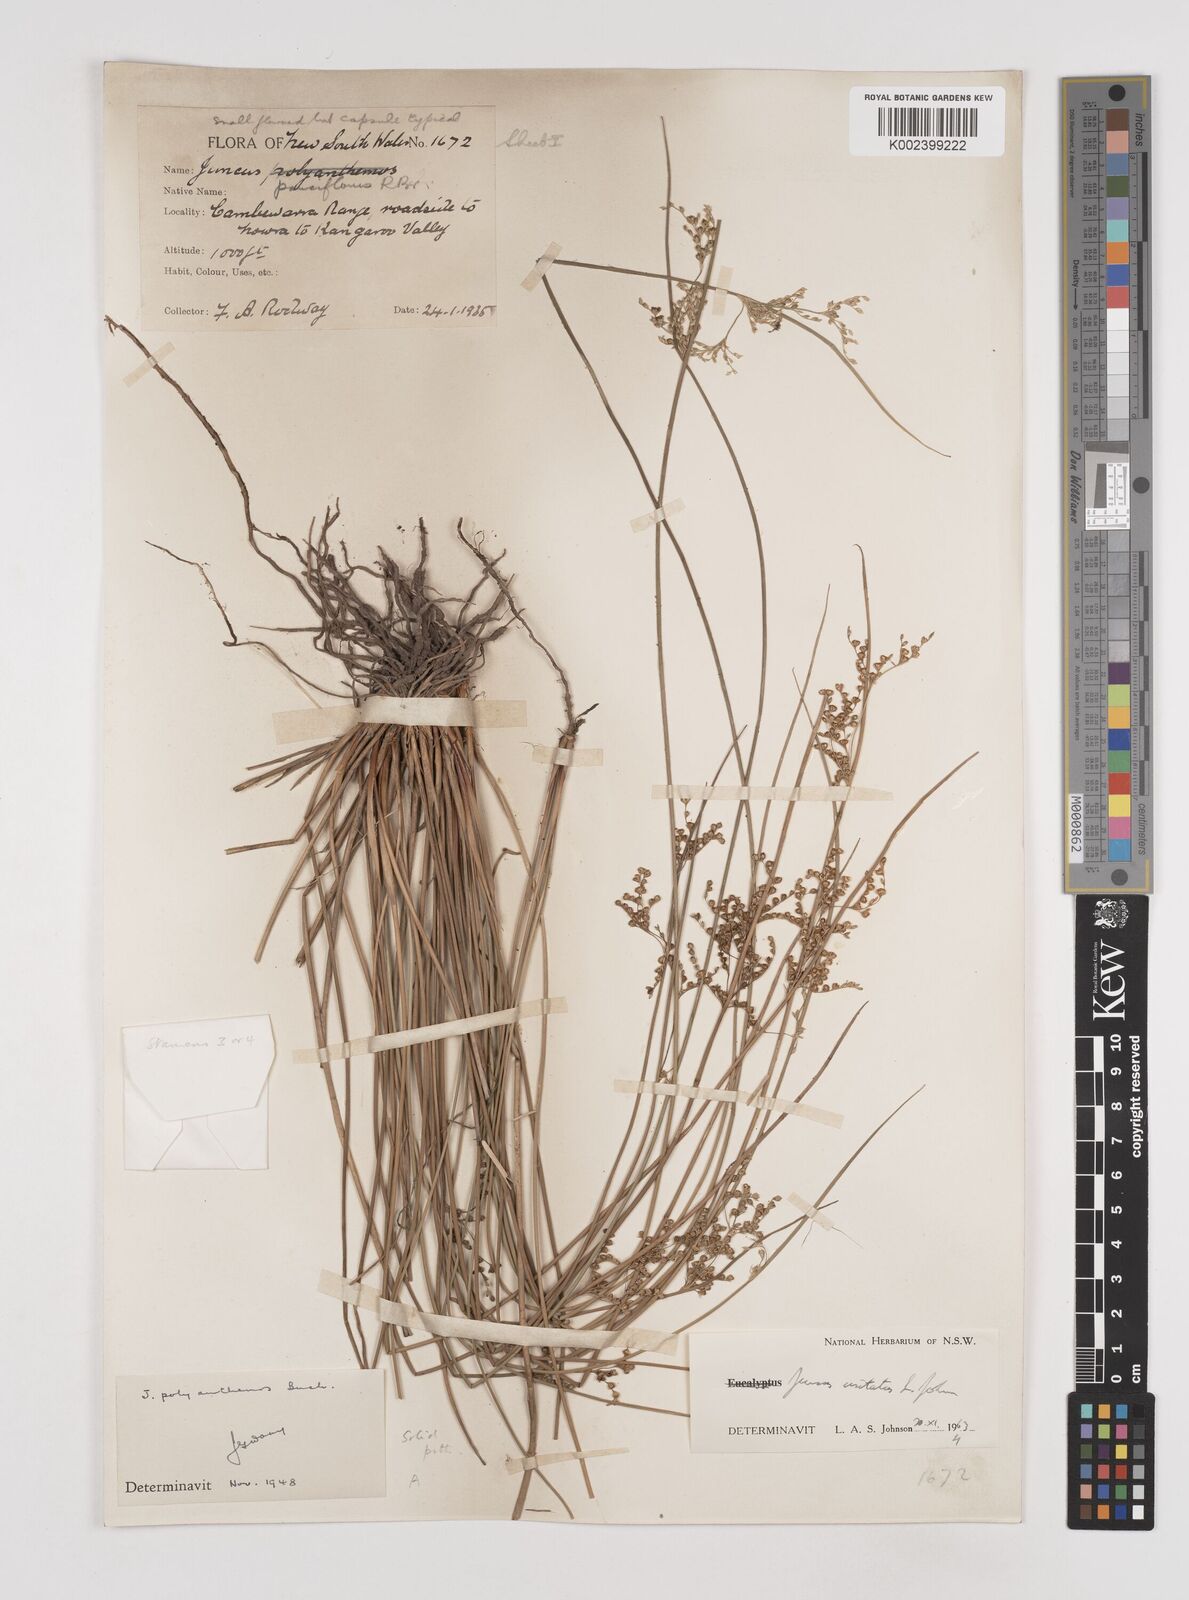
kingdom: Plantae
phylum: Tracheophyta
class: Liliopsida
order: Poales
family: Juncaceae
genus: Juncus
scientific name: Juncus usitatus
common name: Rush
